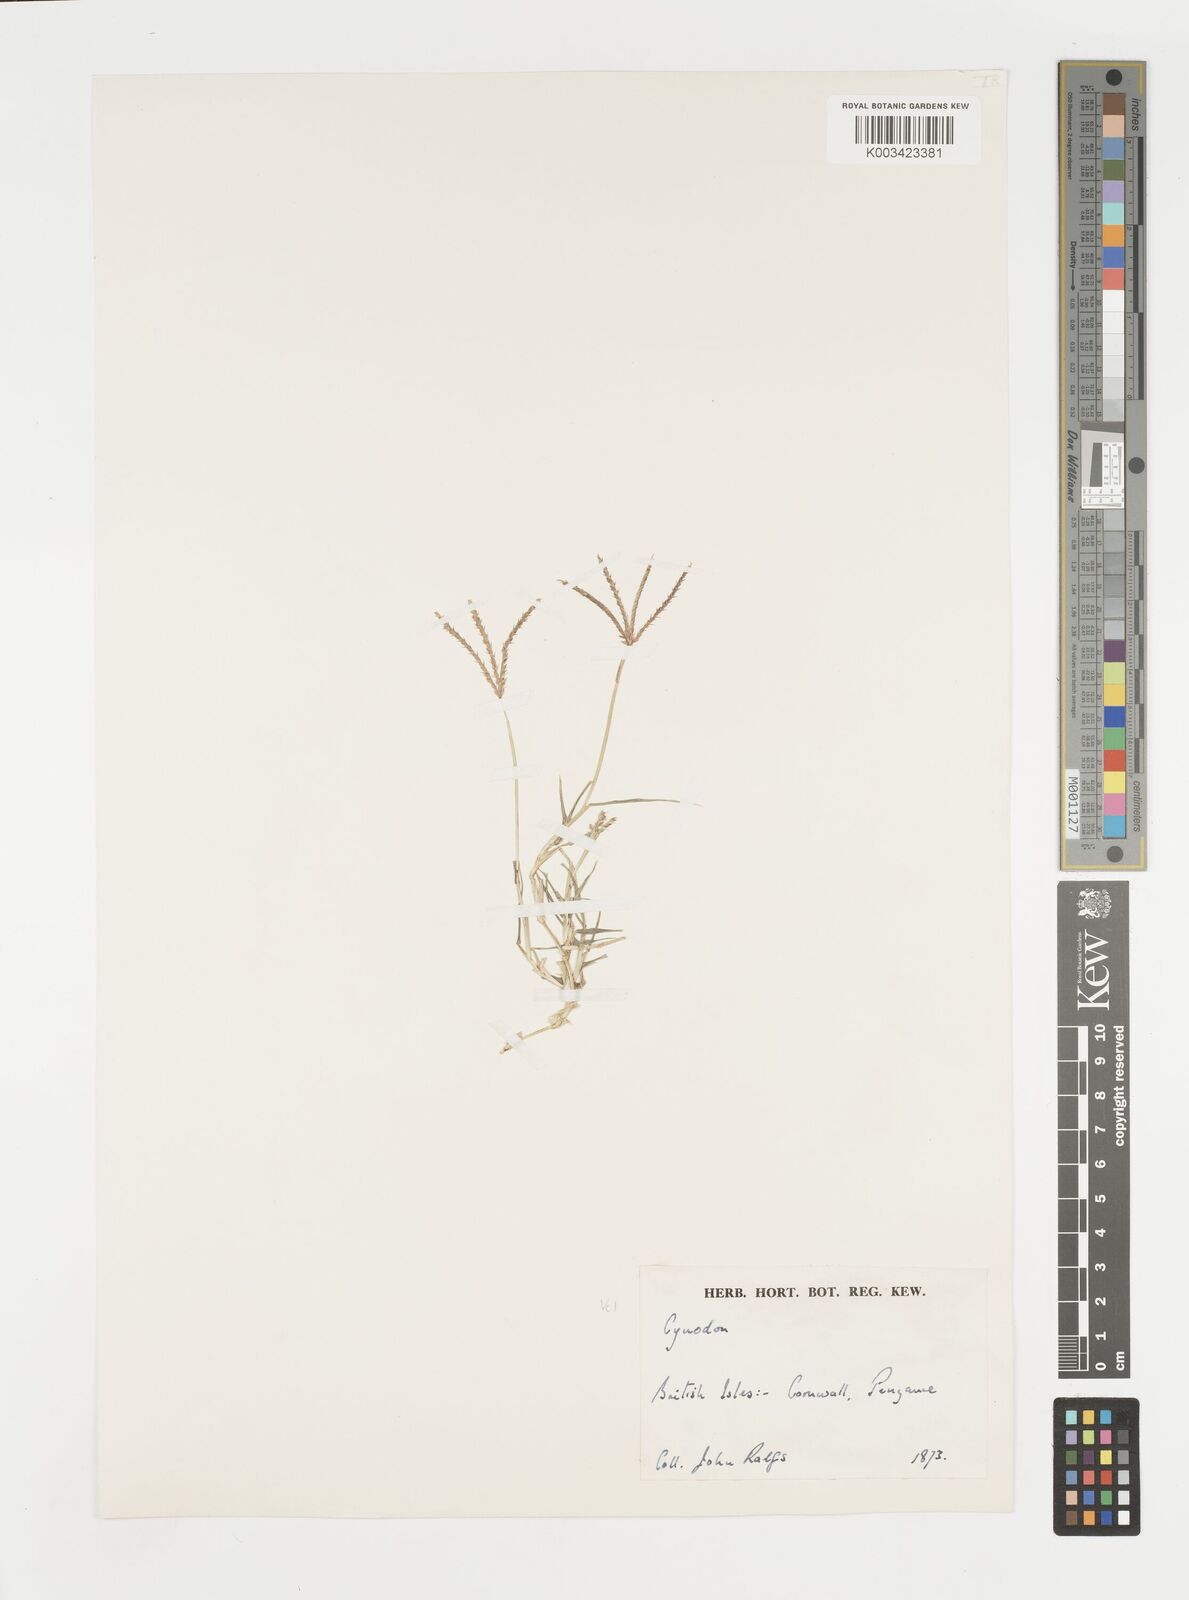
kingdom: Plantae
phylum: Tracheophyta
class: Liliopsida
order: Poales
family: Poaceae
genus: Cynodon
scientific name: Cynodon dactylon
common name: Bermuda grass
